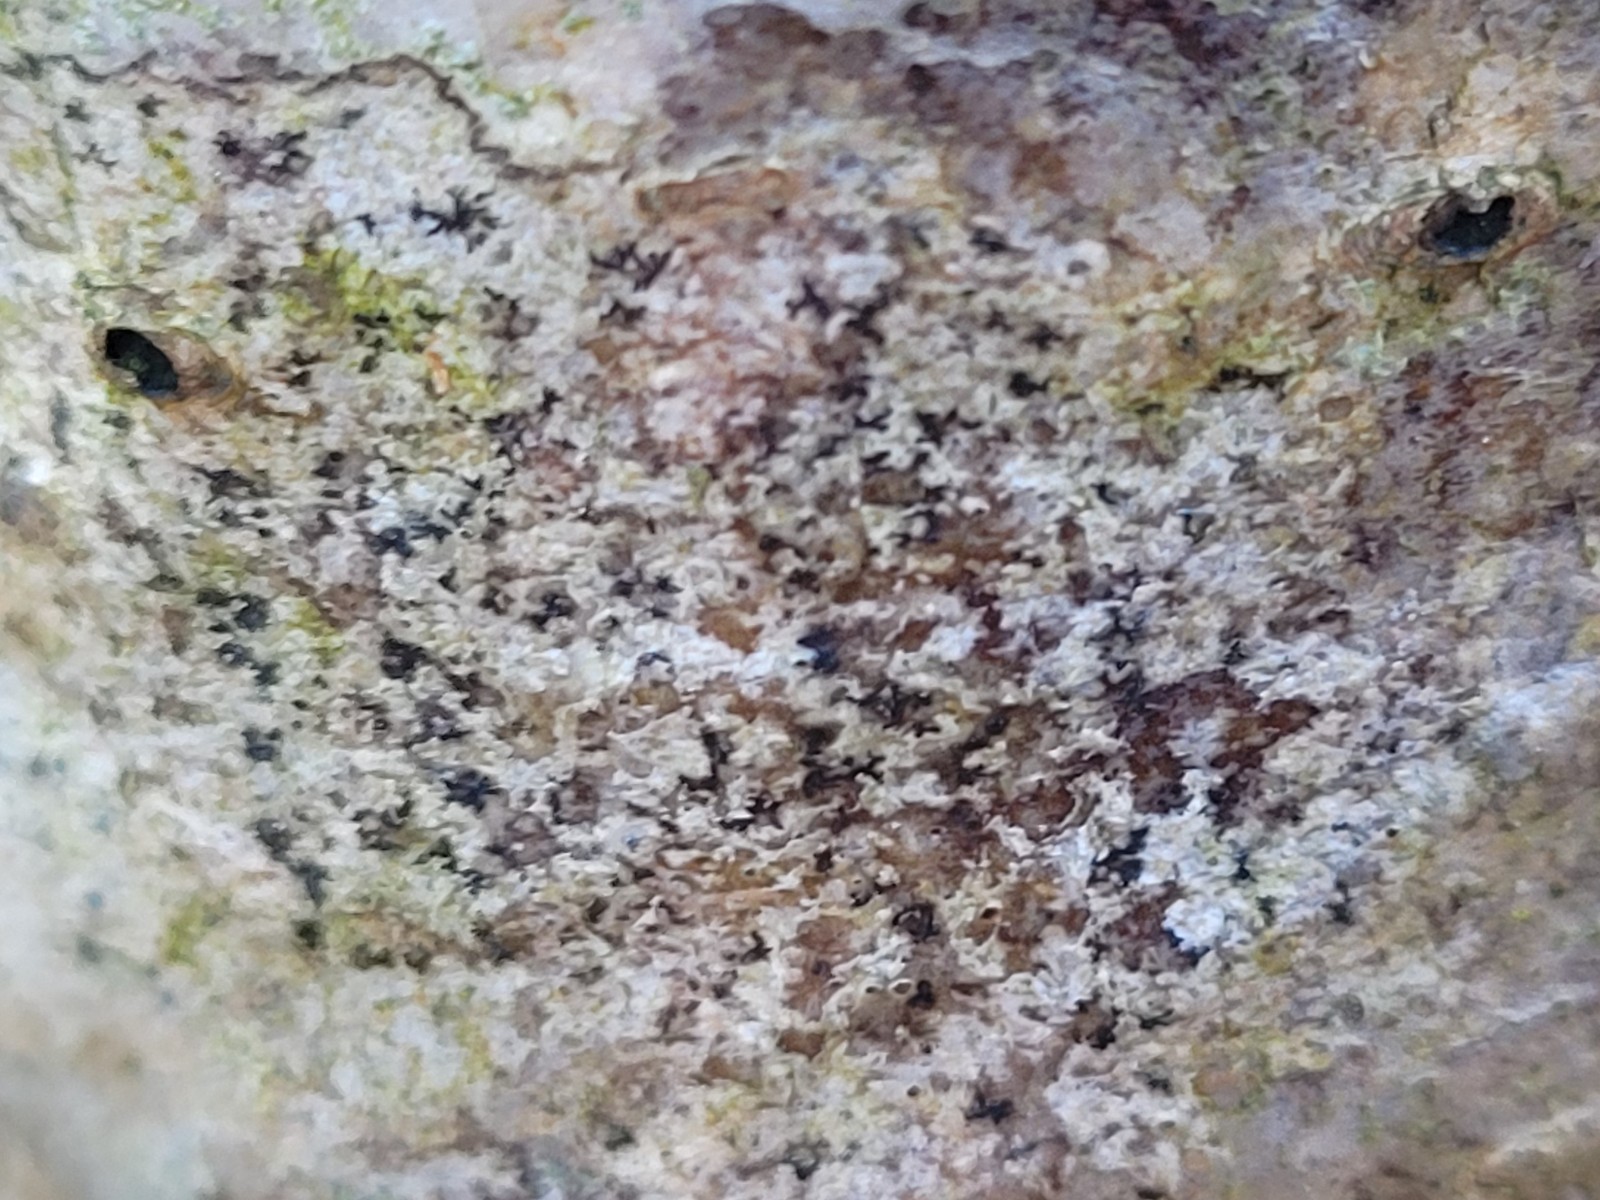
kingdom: Fungi
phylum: Ascomycota
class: Arthoniomycetes
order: Arthoniales
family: Arthoniaceae
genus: Arthonia
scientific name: Arthonia radiata
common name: stjerne-pletlav
